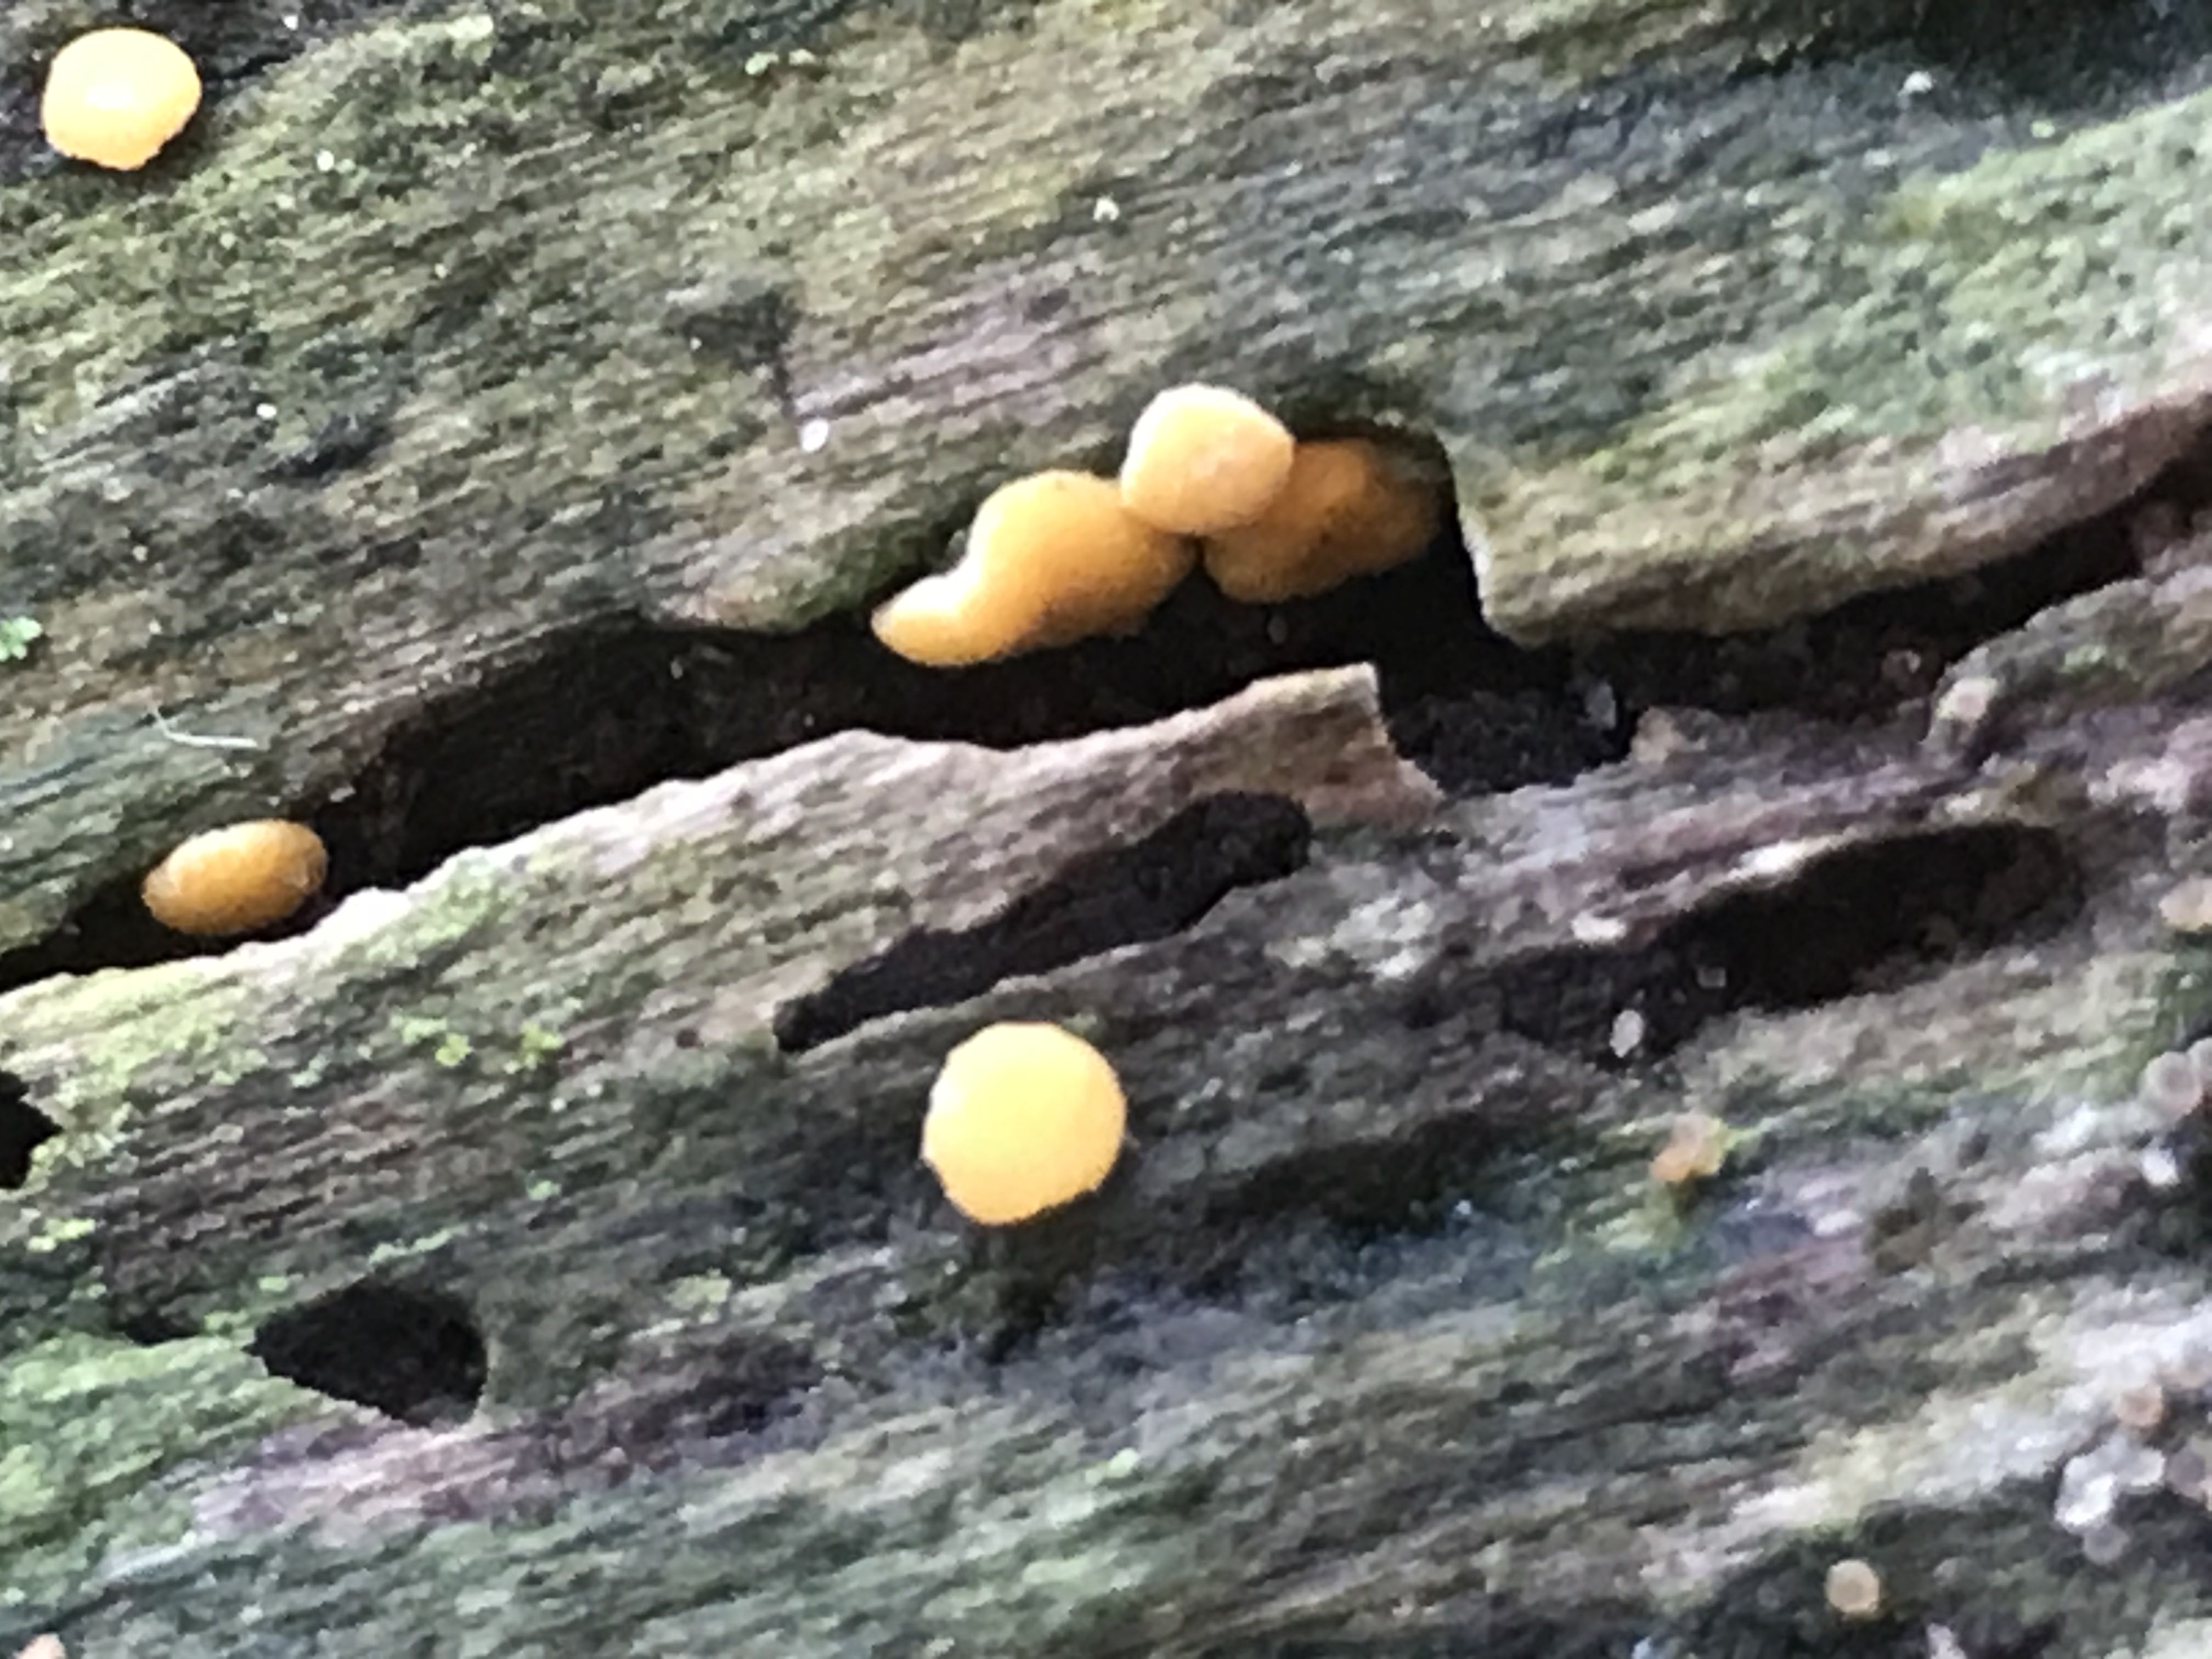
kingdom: Fungi
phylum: Ascomycota
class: Sordariomycetes
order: Hypocreales
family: Hypocreaceae
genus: Trichoderma
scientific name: Trichoderma aureoviride
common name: æggegul kødkerne
